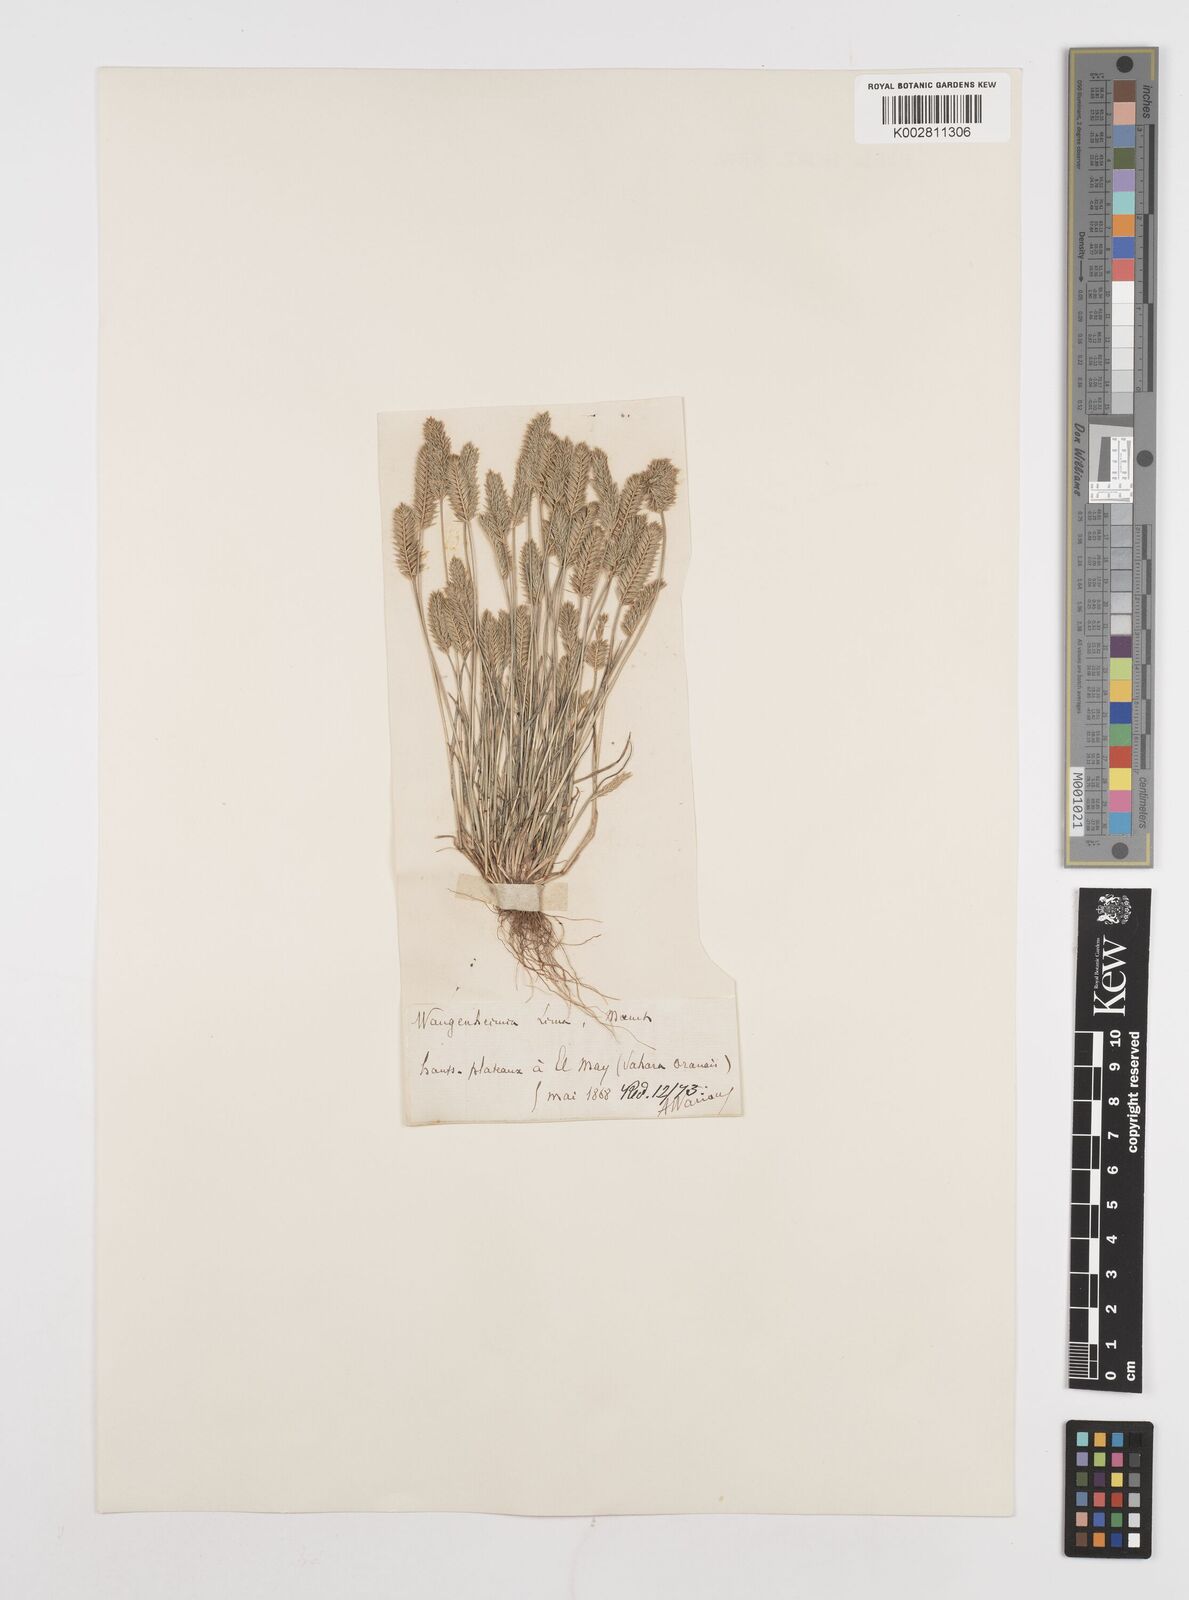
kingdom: Plantae
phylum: Tracheophyta
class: Liliopsida
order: Poales
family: Poaceae
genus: Wangenheimia
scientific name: Wangenheimia lima
